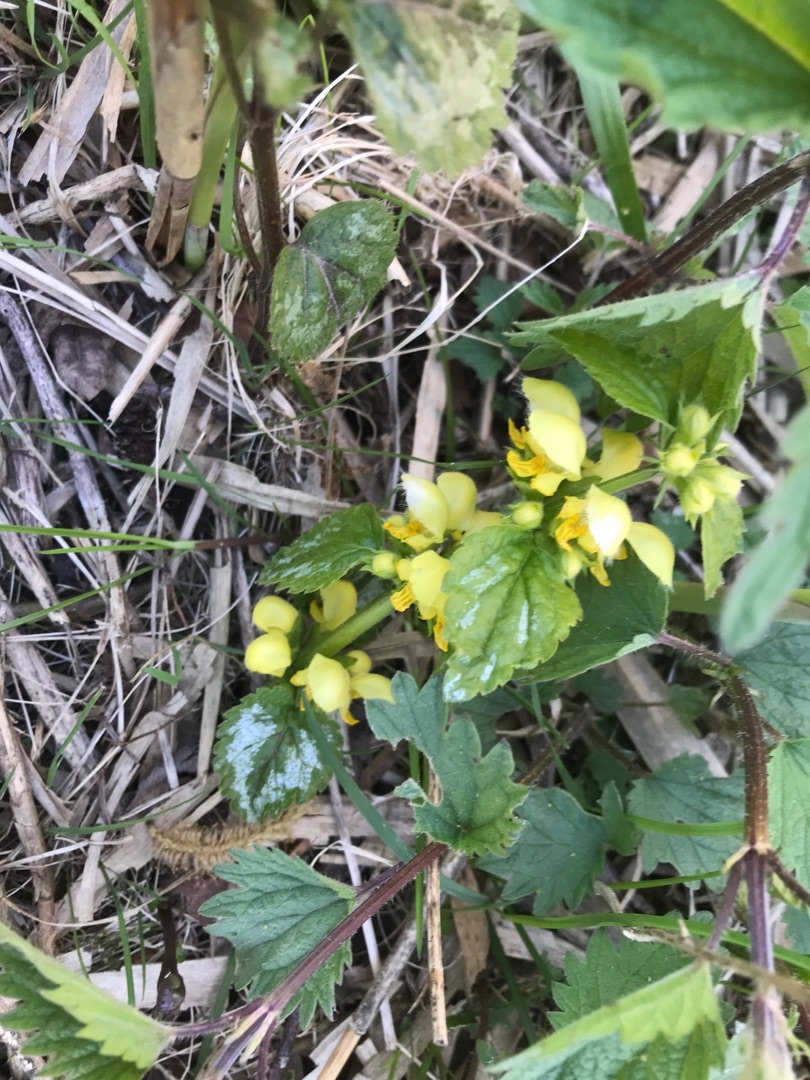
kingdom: Plantae
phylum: Tracheophyta
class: Magnoliopsida
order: Lamiales
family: Lamiaceae
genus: Lamium
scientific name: Lamium galeobdolon
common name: Have-guldnælde
